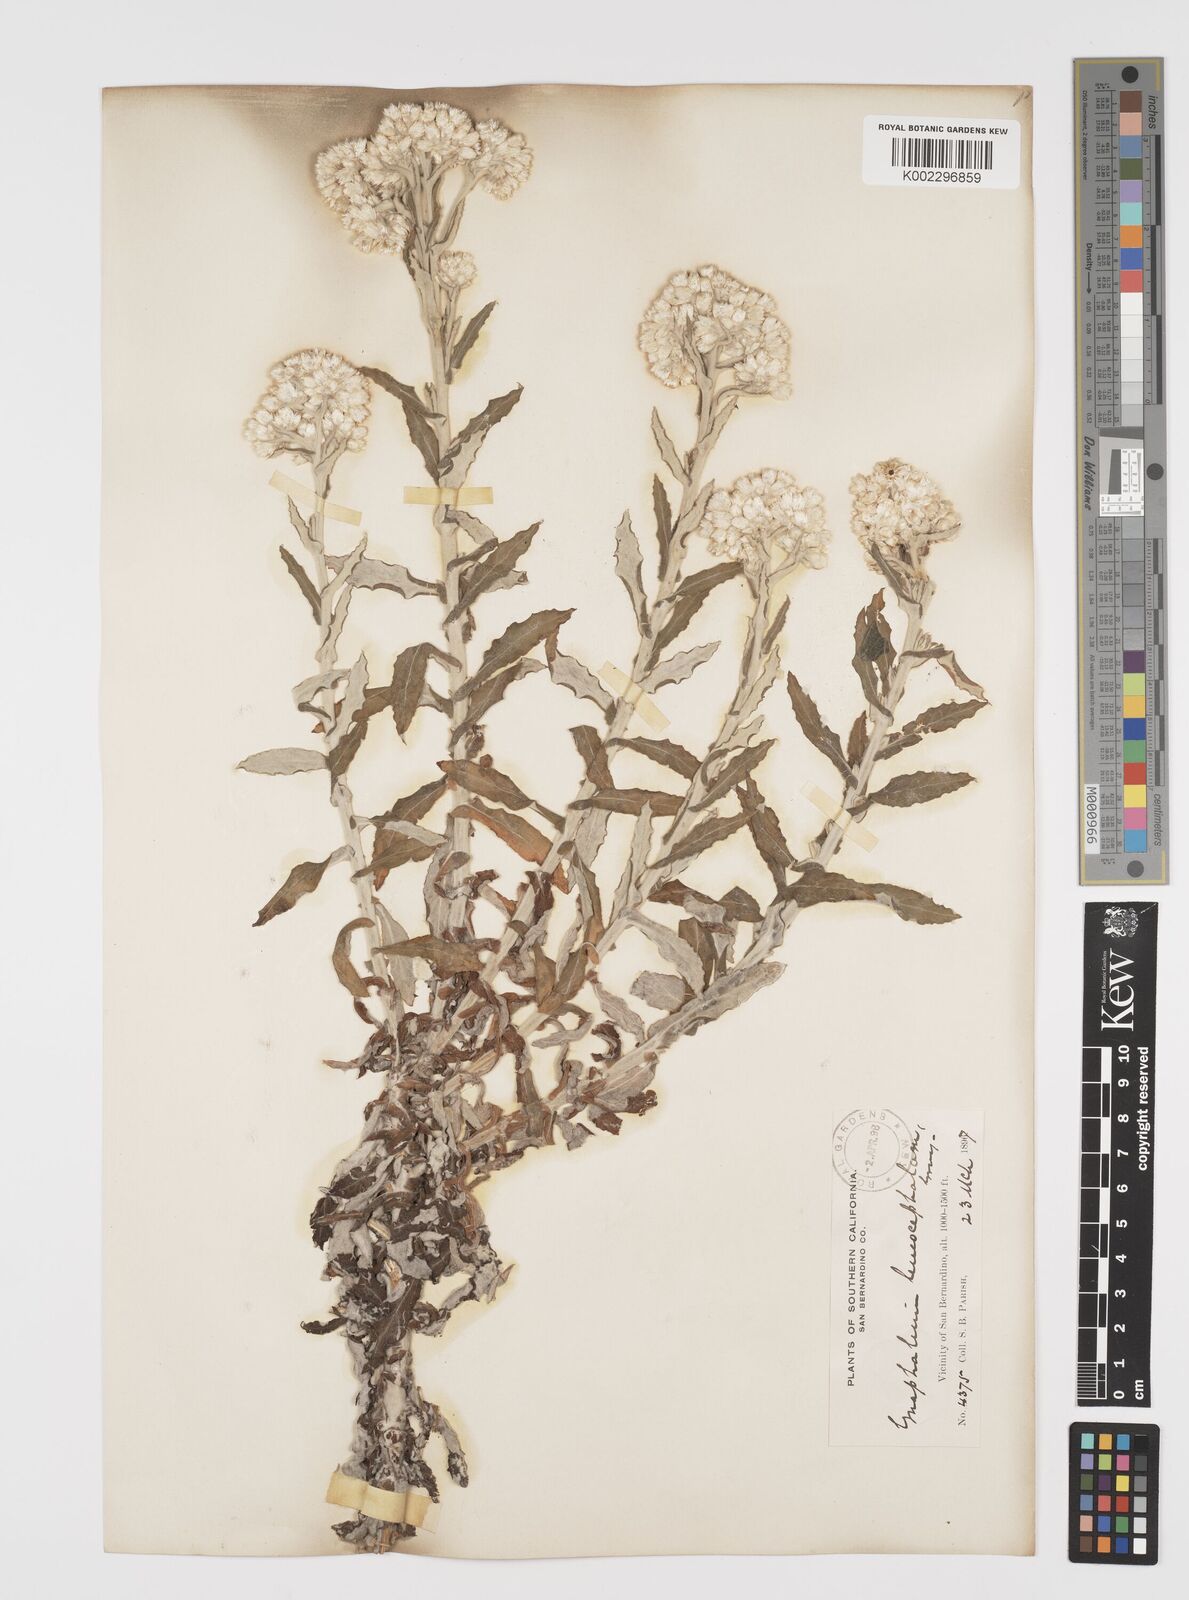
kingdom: Plantae
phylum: Tracheophyta
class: Magnoliopsida
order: Asterales
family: Asteraceae
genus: Pseudognaphalium
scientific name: Pseudognaphalium leucocephalum
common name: White cudweed
